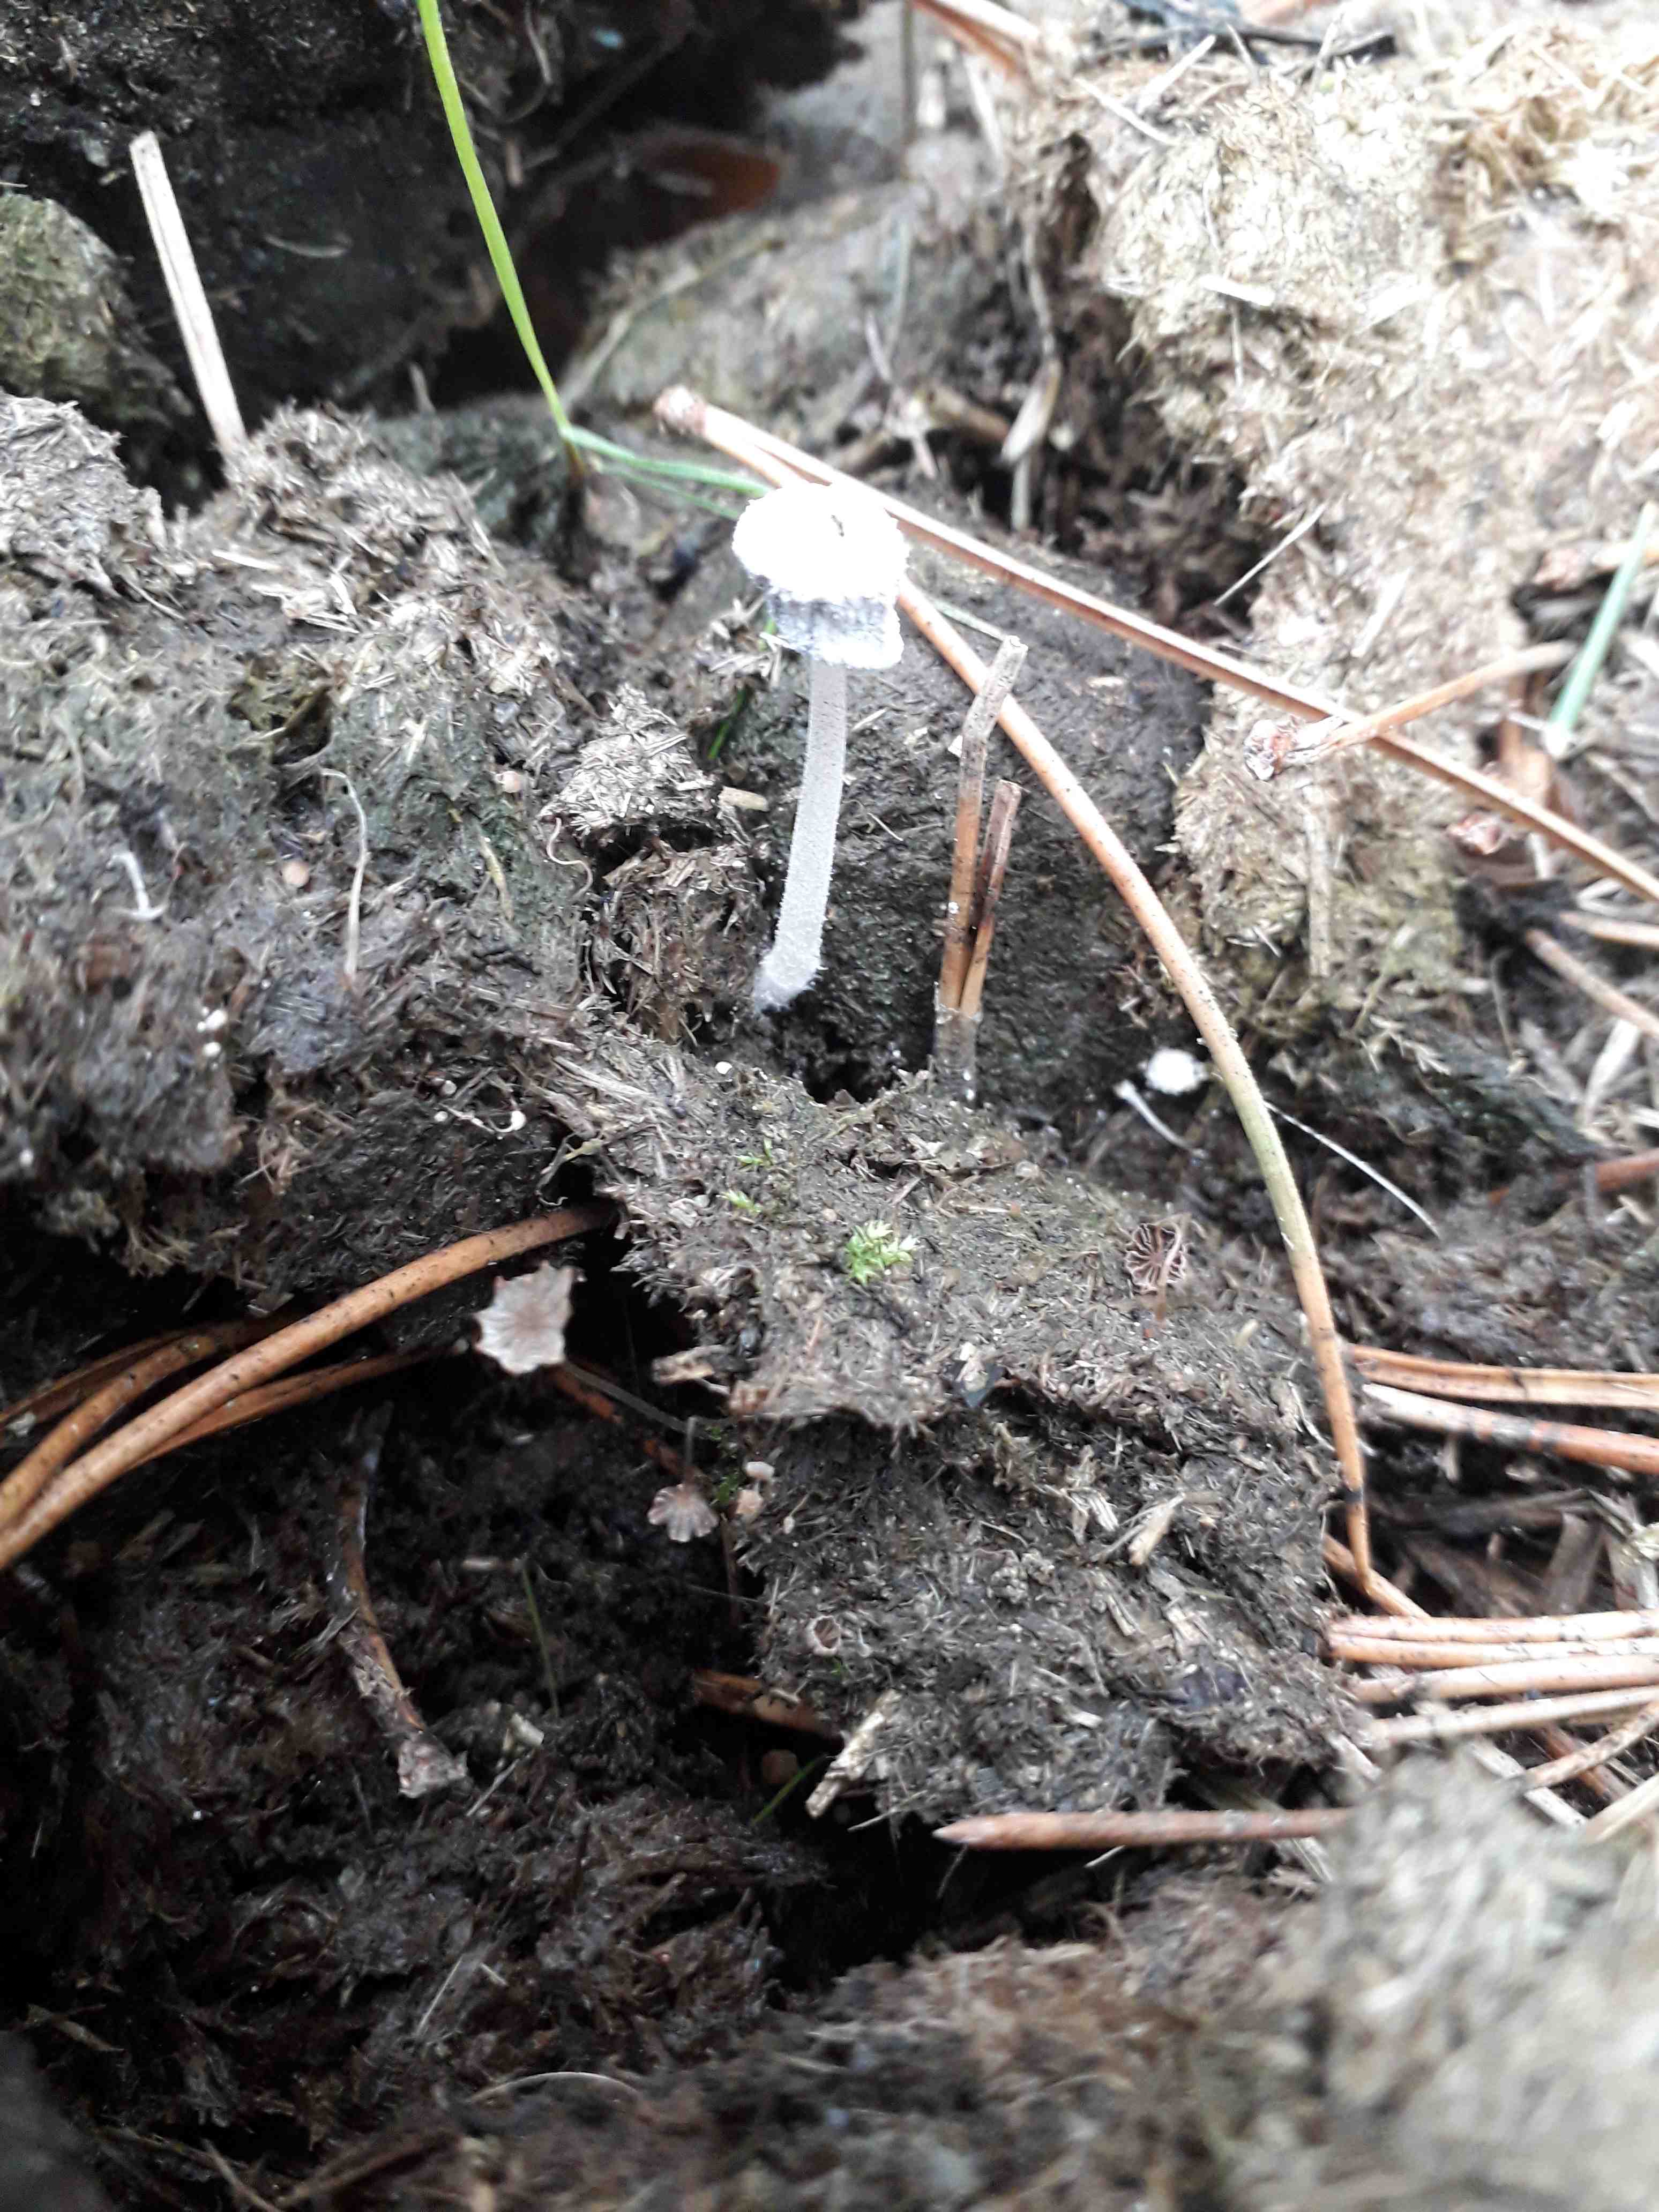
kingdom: Fungi
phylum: Basidiomycota
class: Agaricomycetes
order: Agaricales
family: Psathyrellaceae
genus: Coprinopsis
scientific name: Coprinopsis
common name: blækhat
